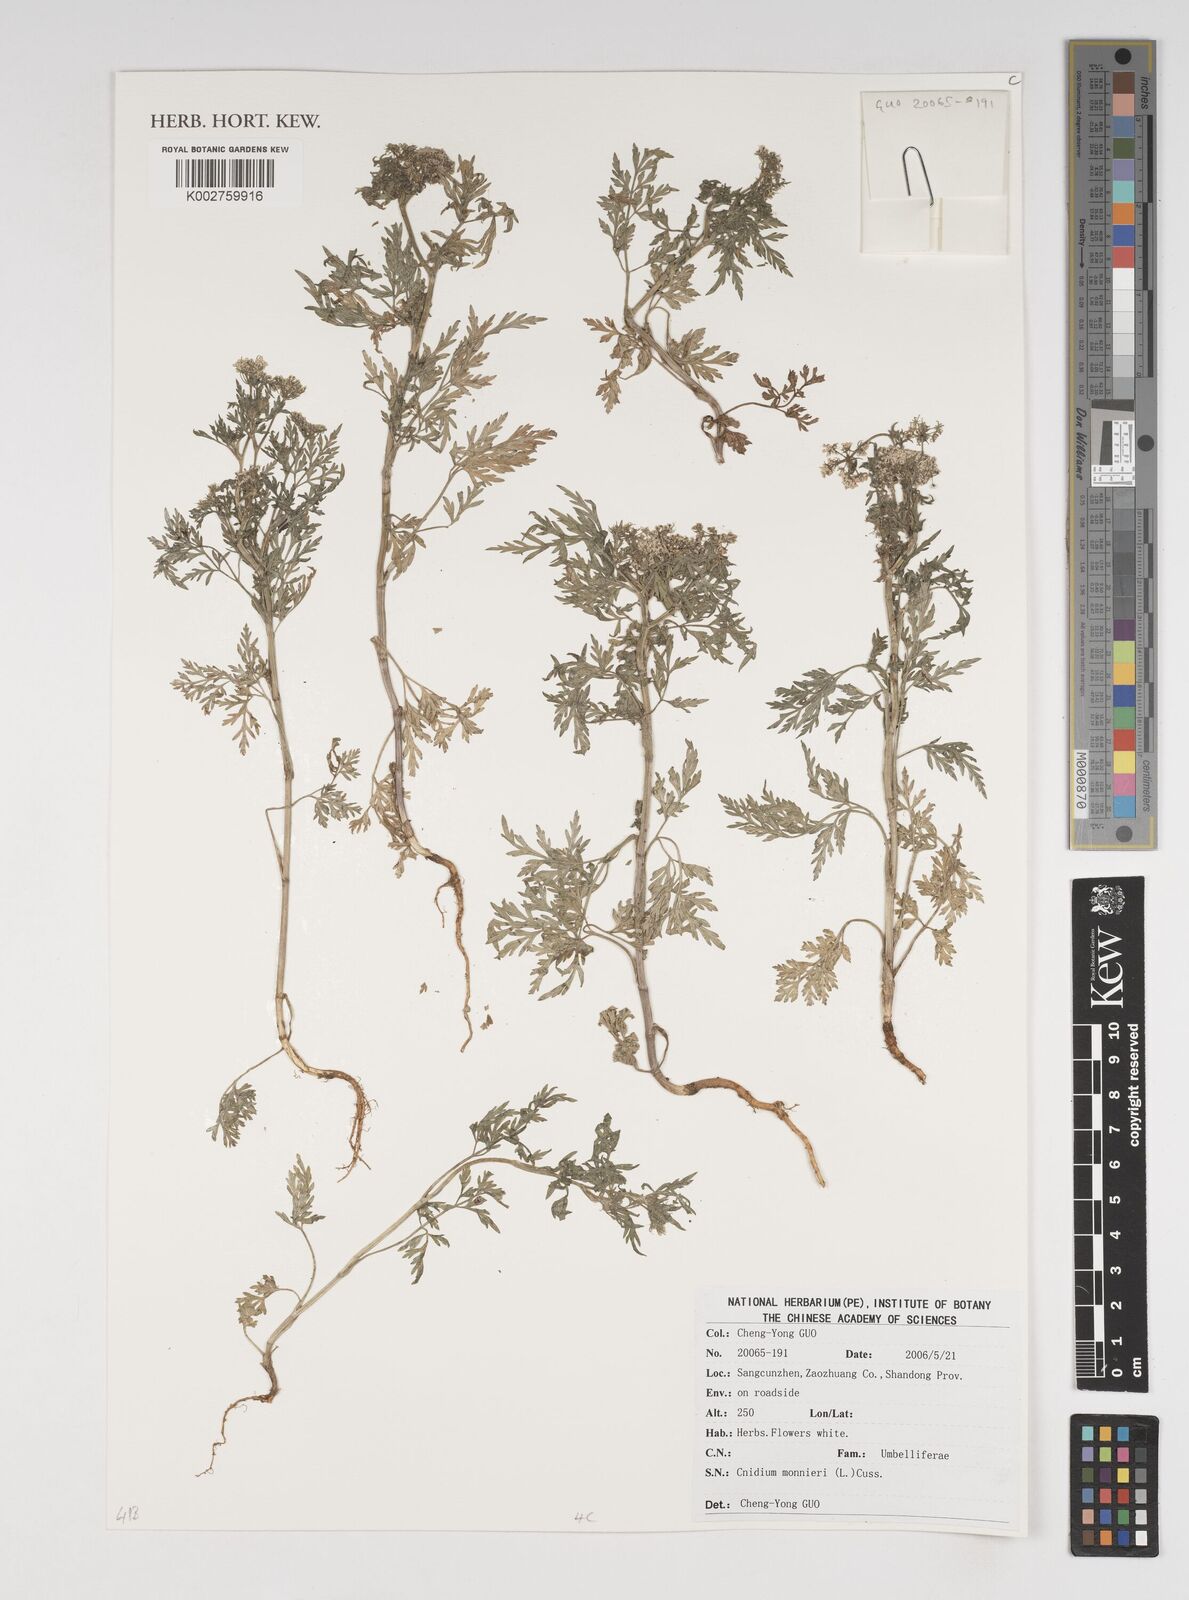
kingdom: Plantae
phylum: Tracheophyta
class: Magnoliopsida
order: Apiales
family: Apiaceae
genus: Cnidium
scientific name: Cnidium monnieri
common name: Monnier's snowparsley
